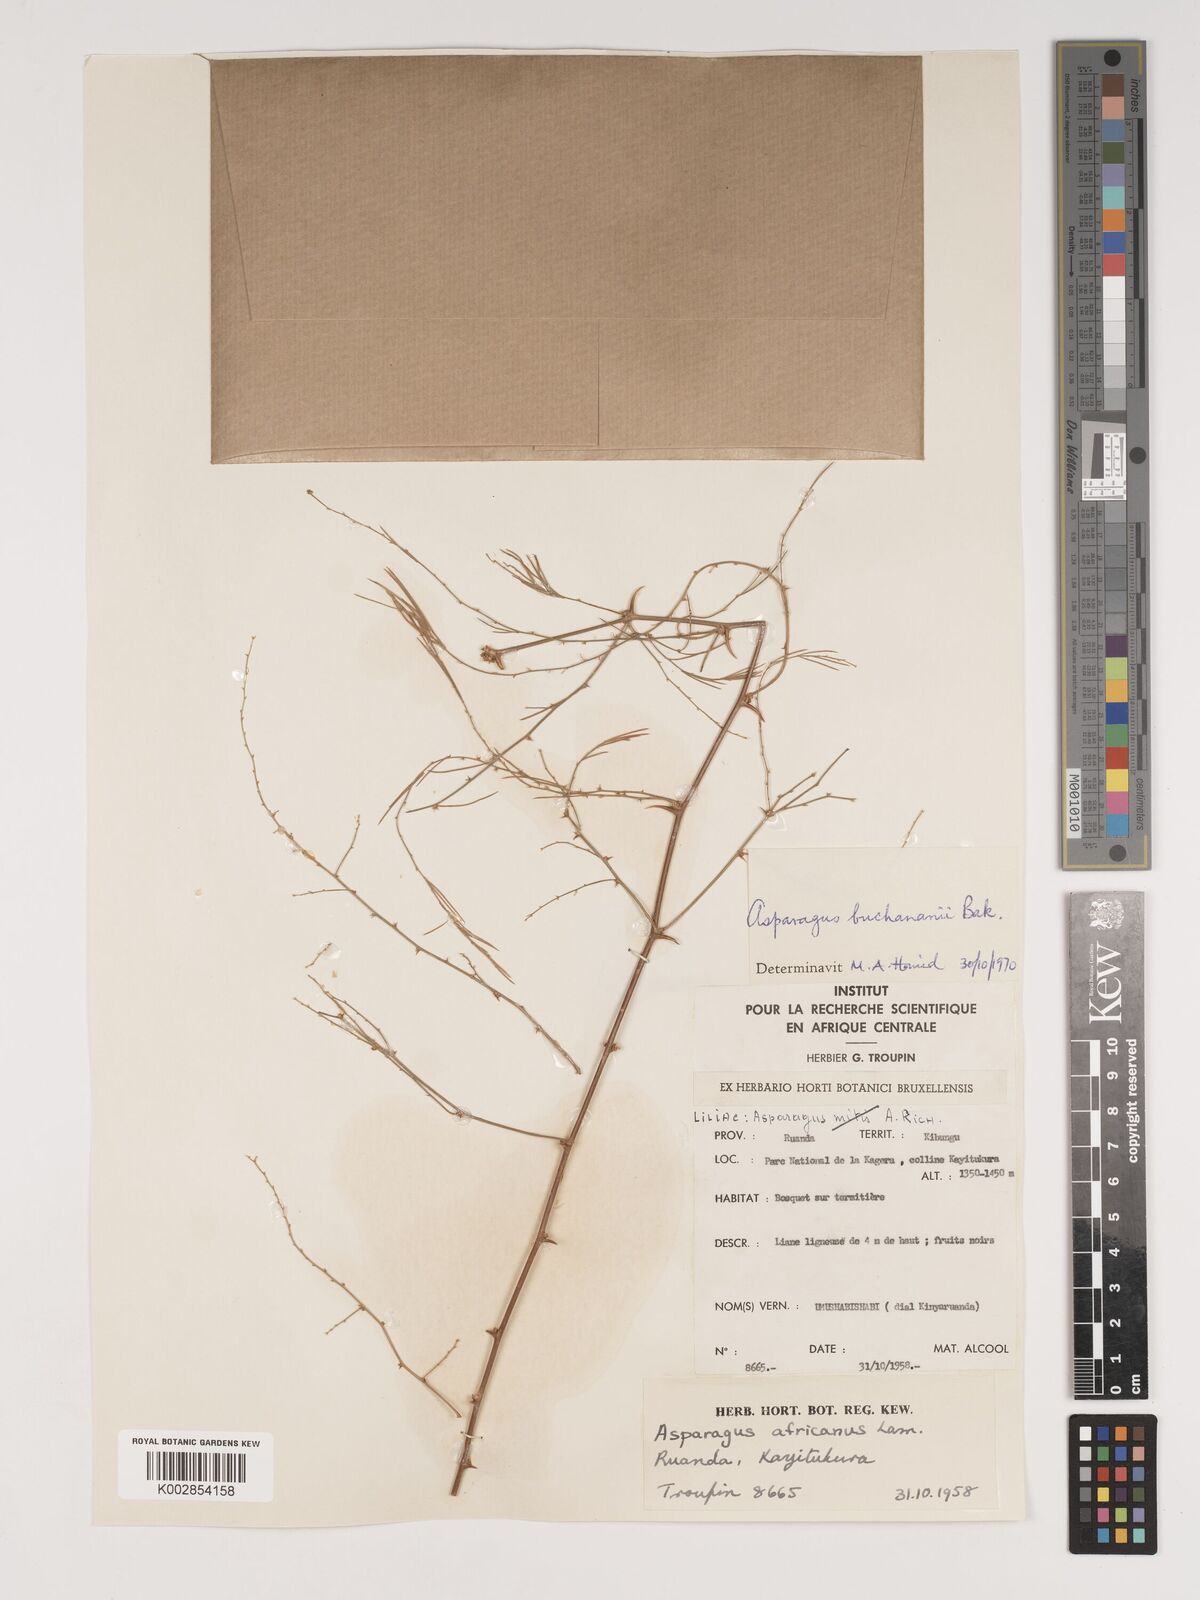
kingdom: Plantae
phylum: Tracheophyta
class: Liliopsida
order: Asparagales
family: Asparagaceae
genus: Asparagus
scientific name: Asparagus buchananii
